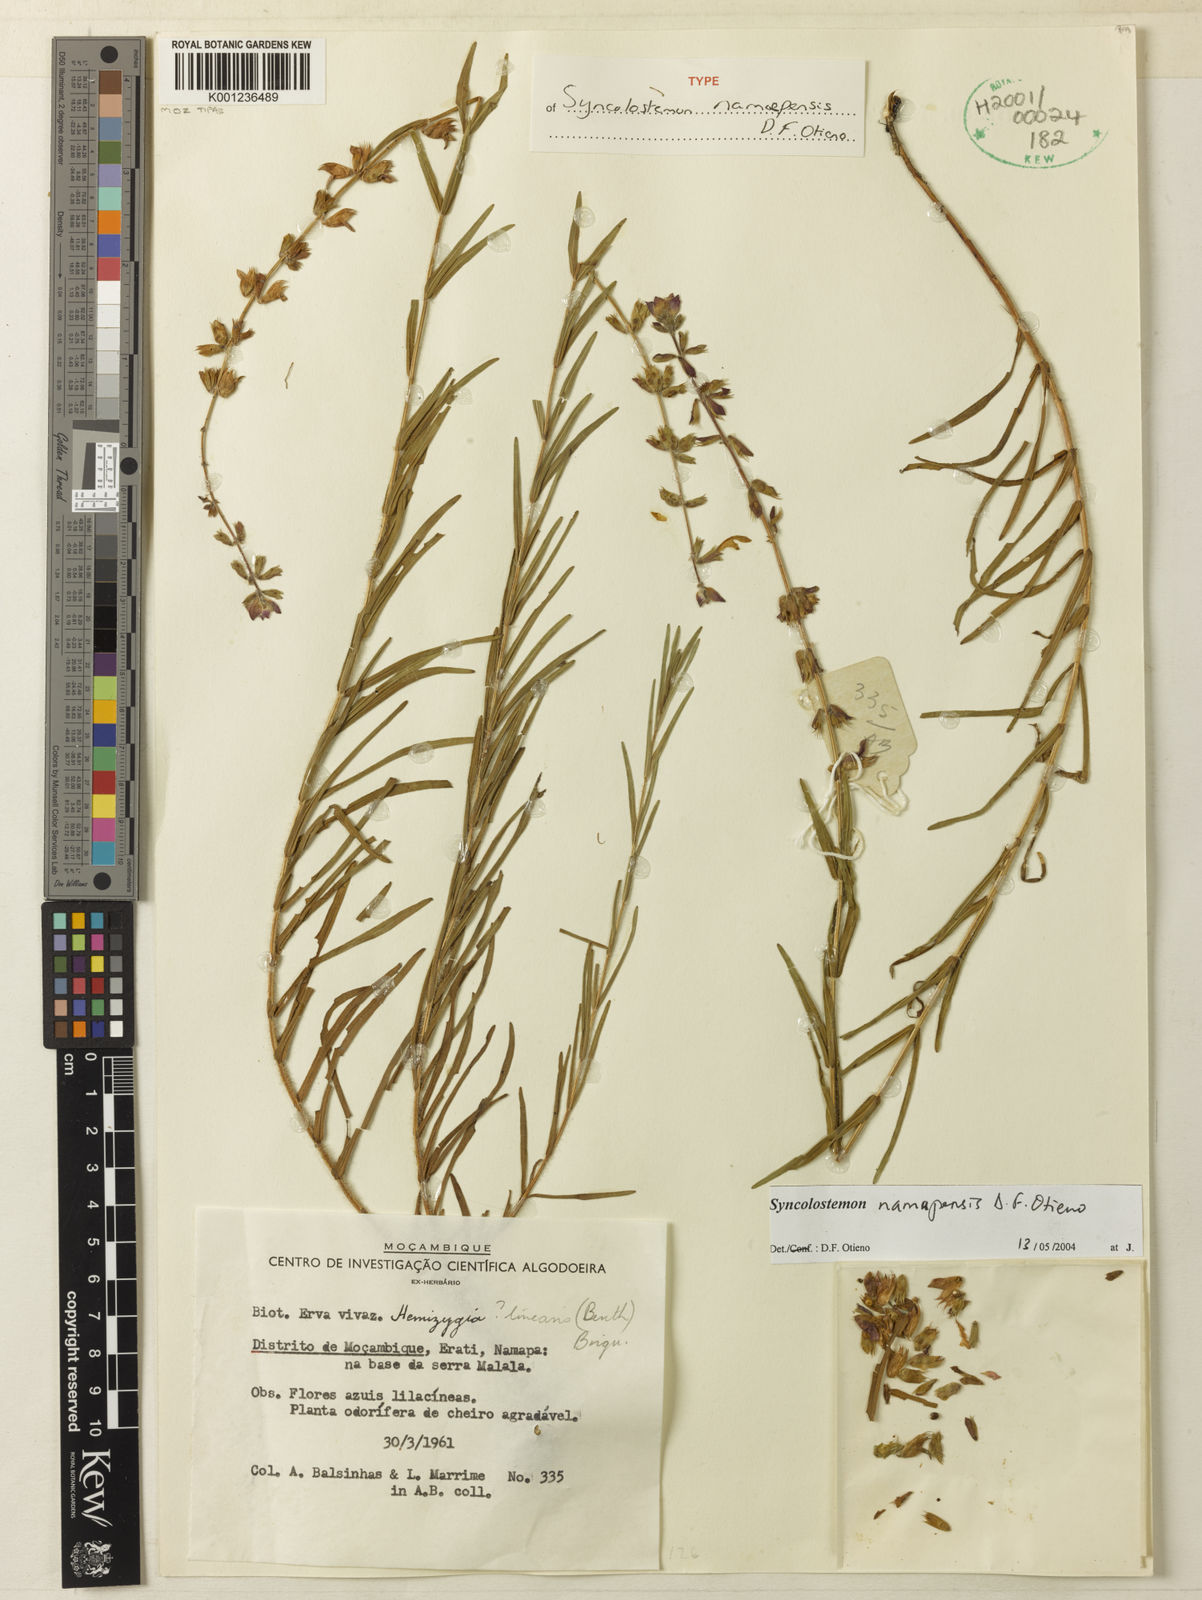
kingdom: Plantae
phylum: Tracheophyta
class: Magnoliopsida
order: Lamiales
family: Lamiaceae
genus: Syncolostemon
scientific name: Syncolostemon namapaensis
